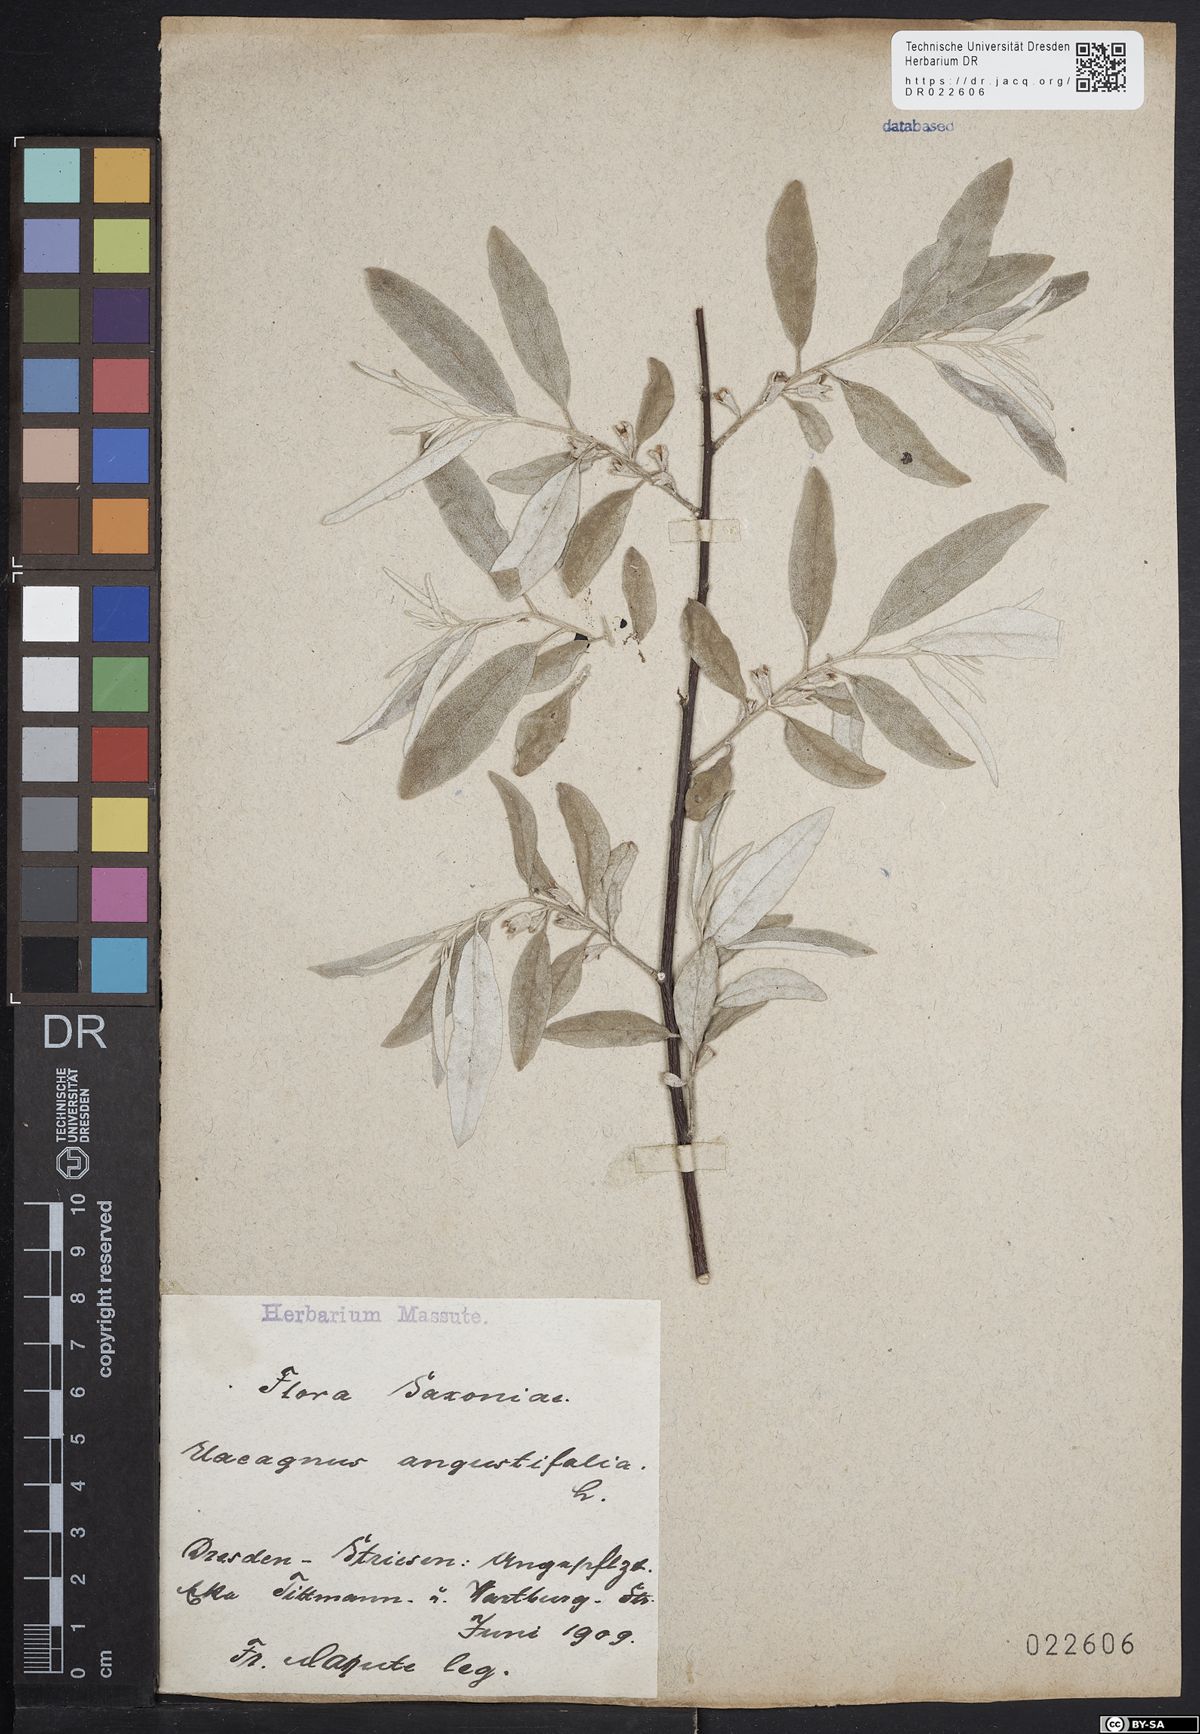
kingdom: Plantae
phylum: Tracheophyta
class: Magnoliopsida
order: Rosales
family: Elaeagnaceae
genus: Elaeagnus
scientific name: Elaeagnus angustifolia
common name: Russian olive
